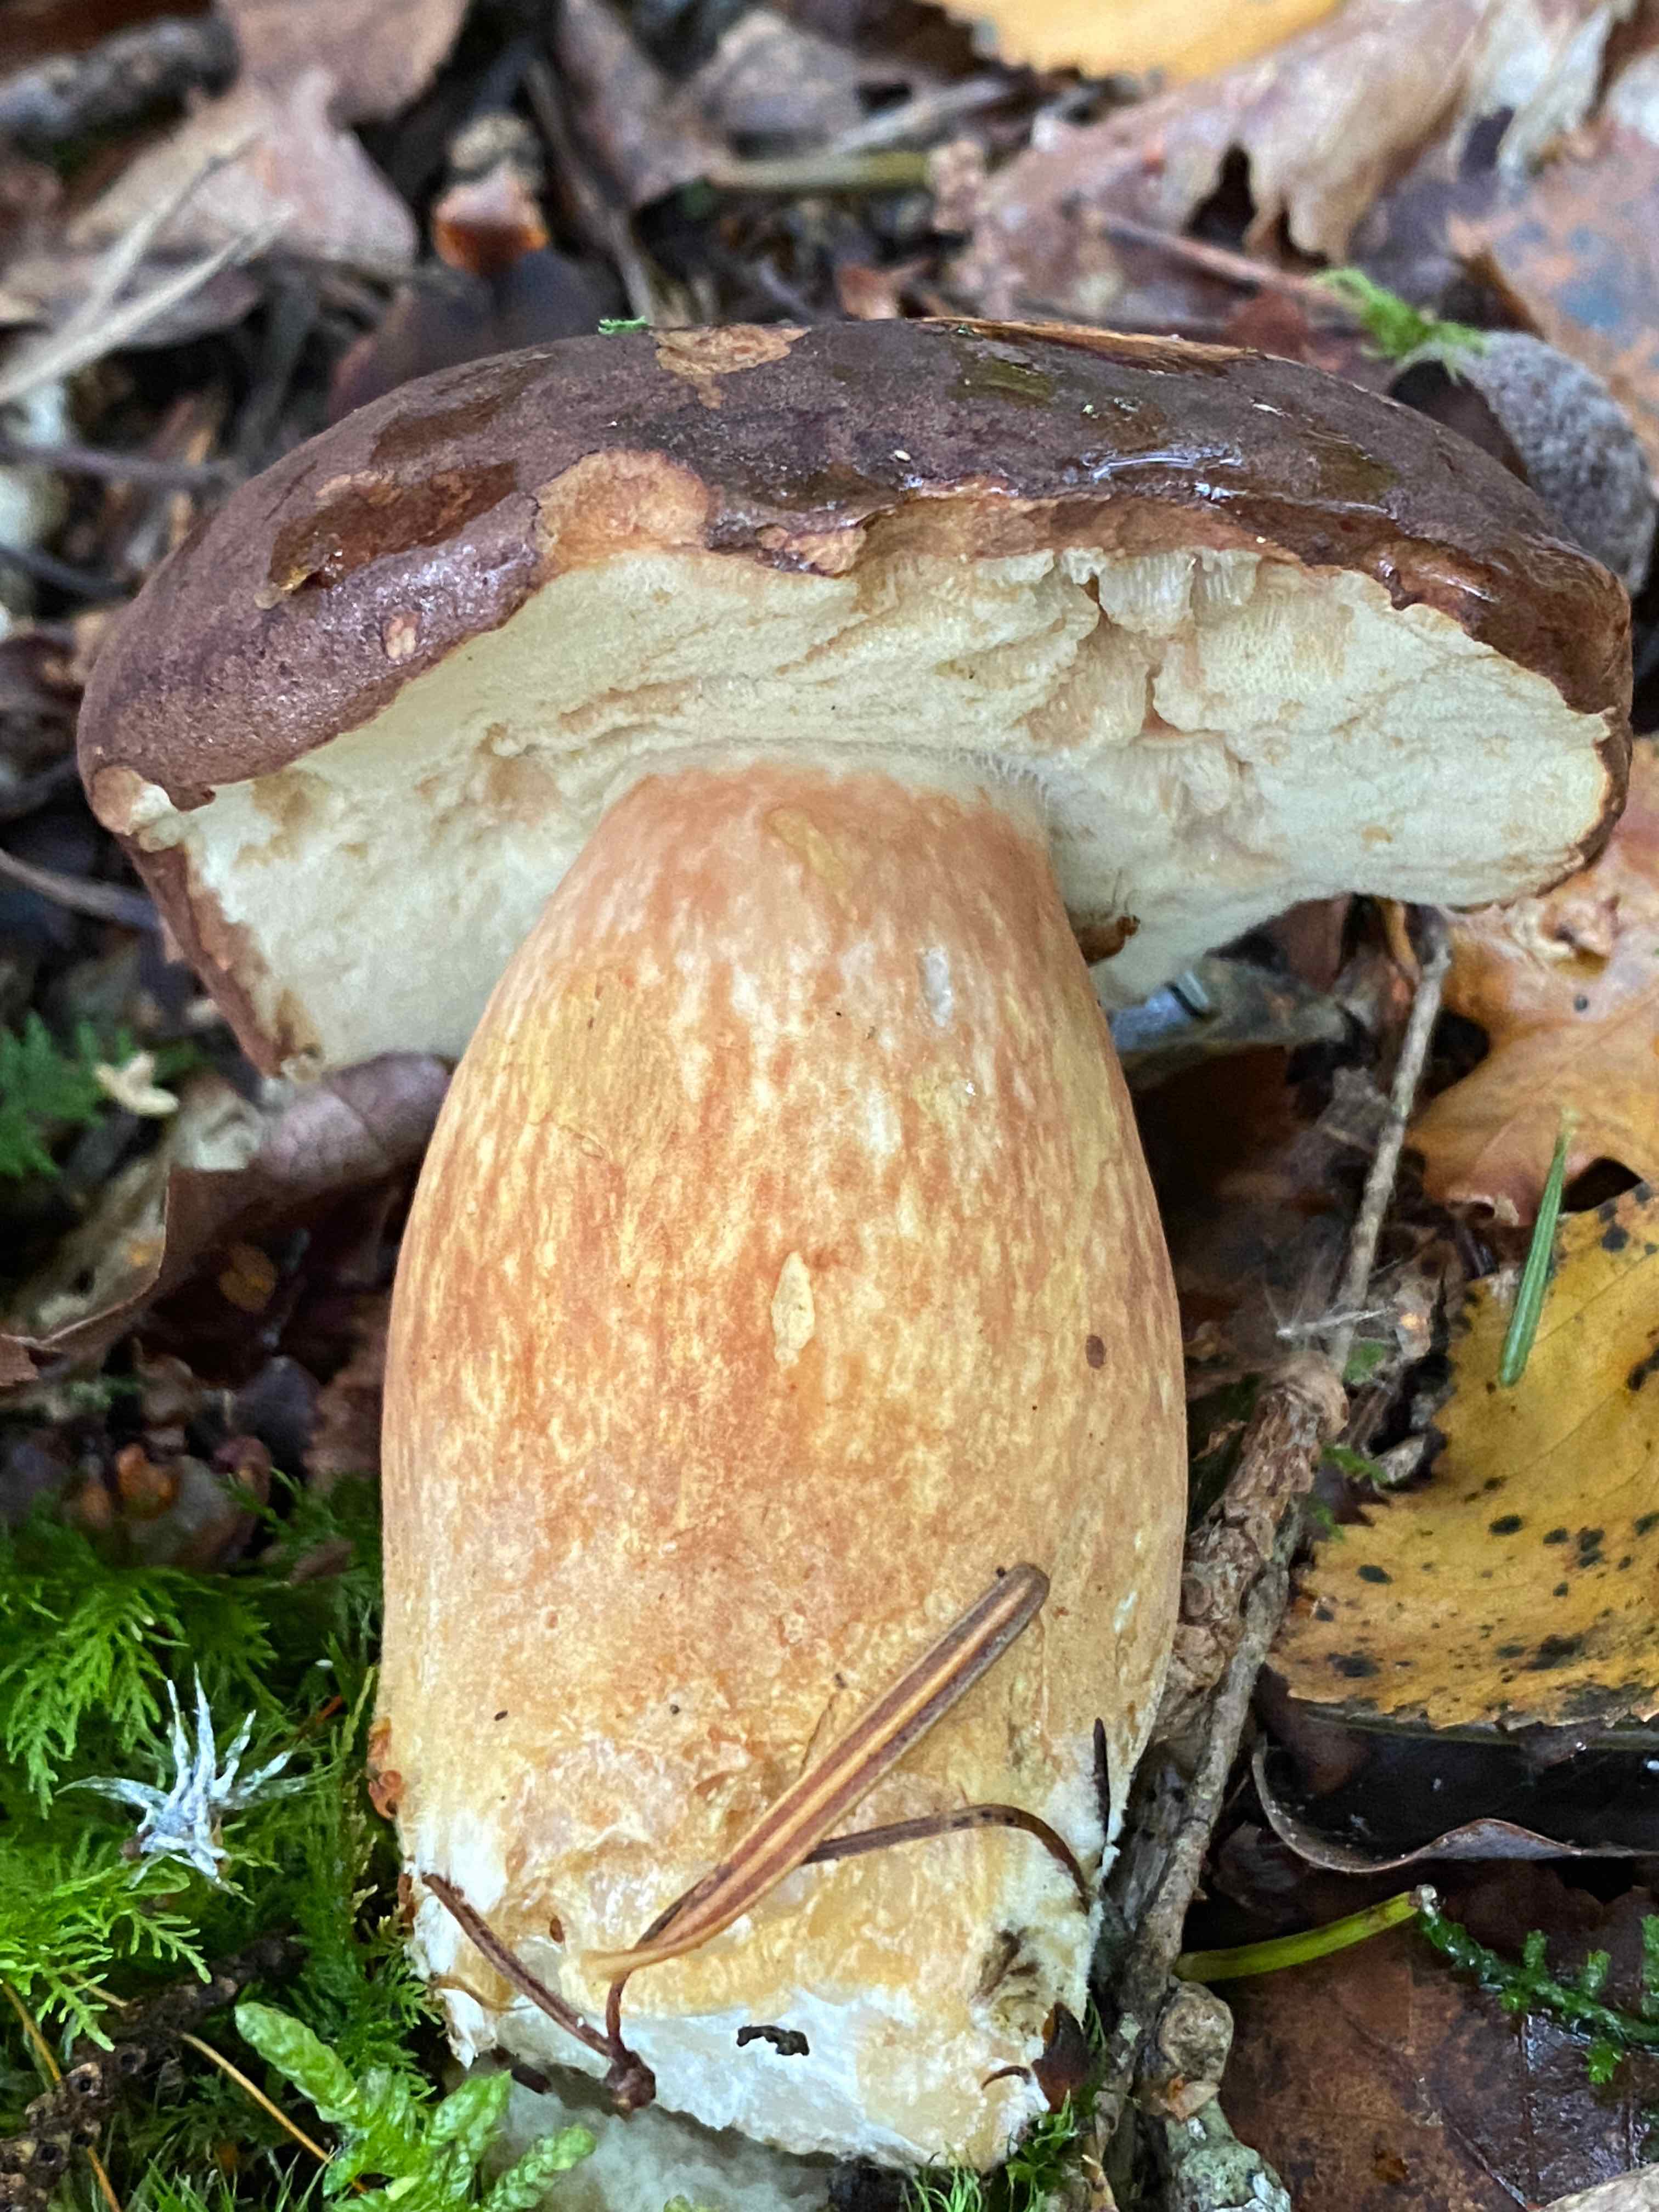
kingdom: Fungi
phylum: Basidiomycota
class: Agaricomycetes
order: Boletales
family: Boletaceae
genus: Imleria
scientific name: Imleria badia
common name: brunstokket rørhat
